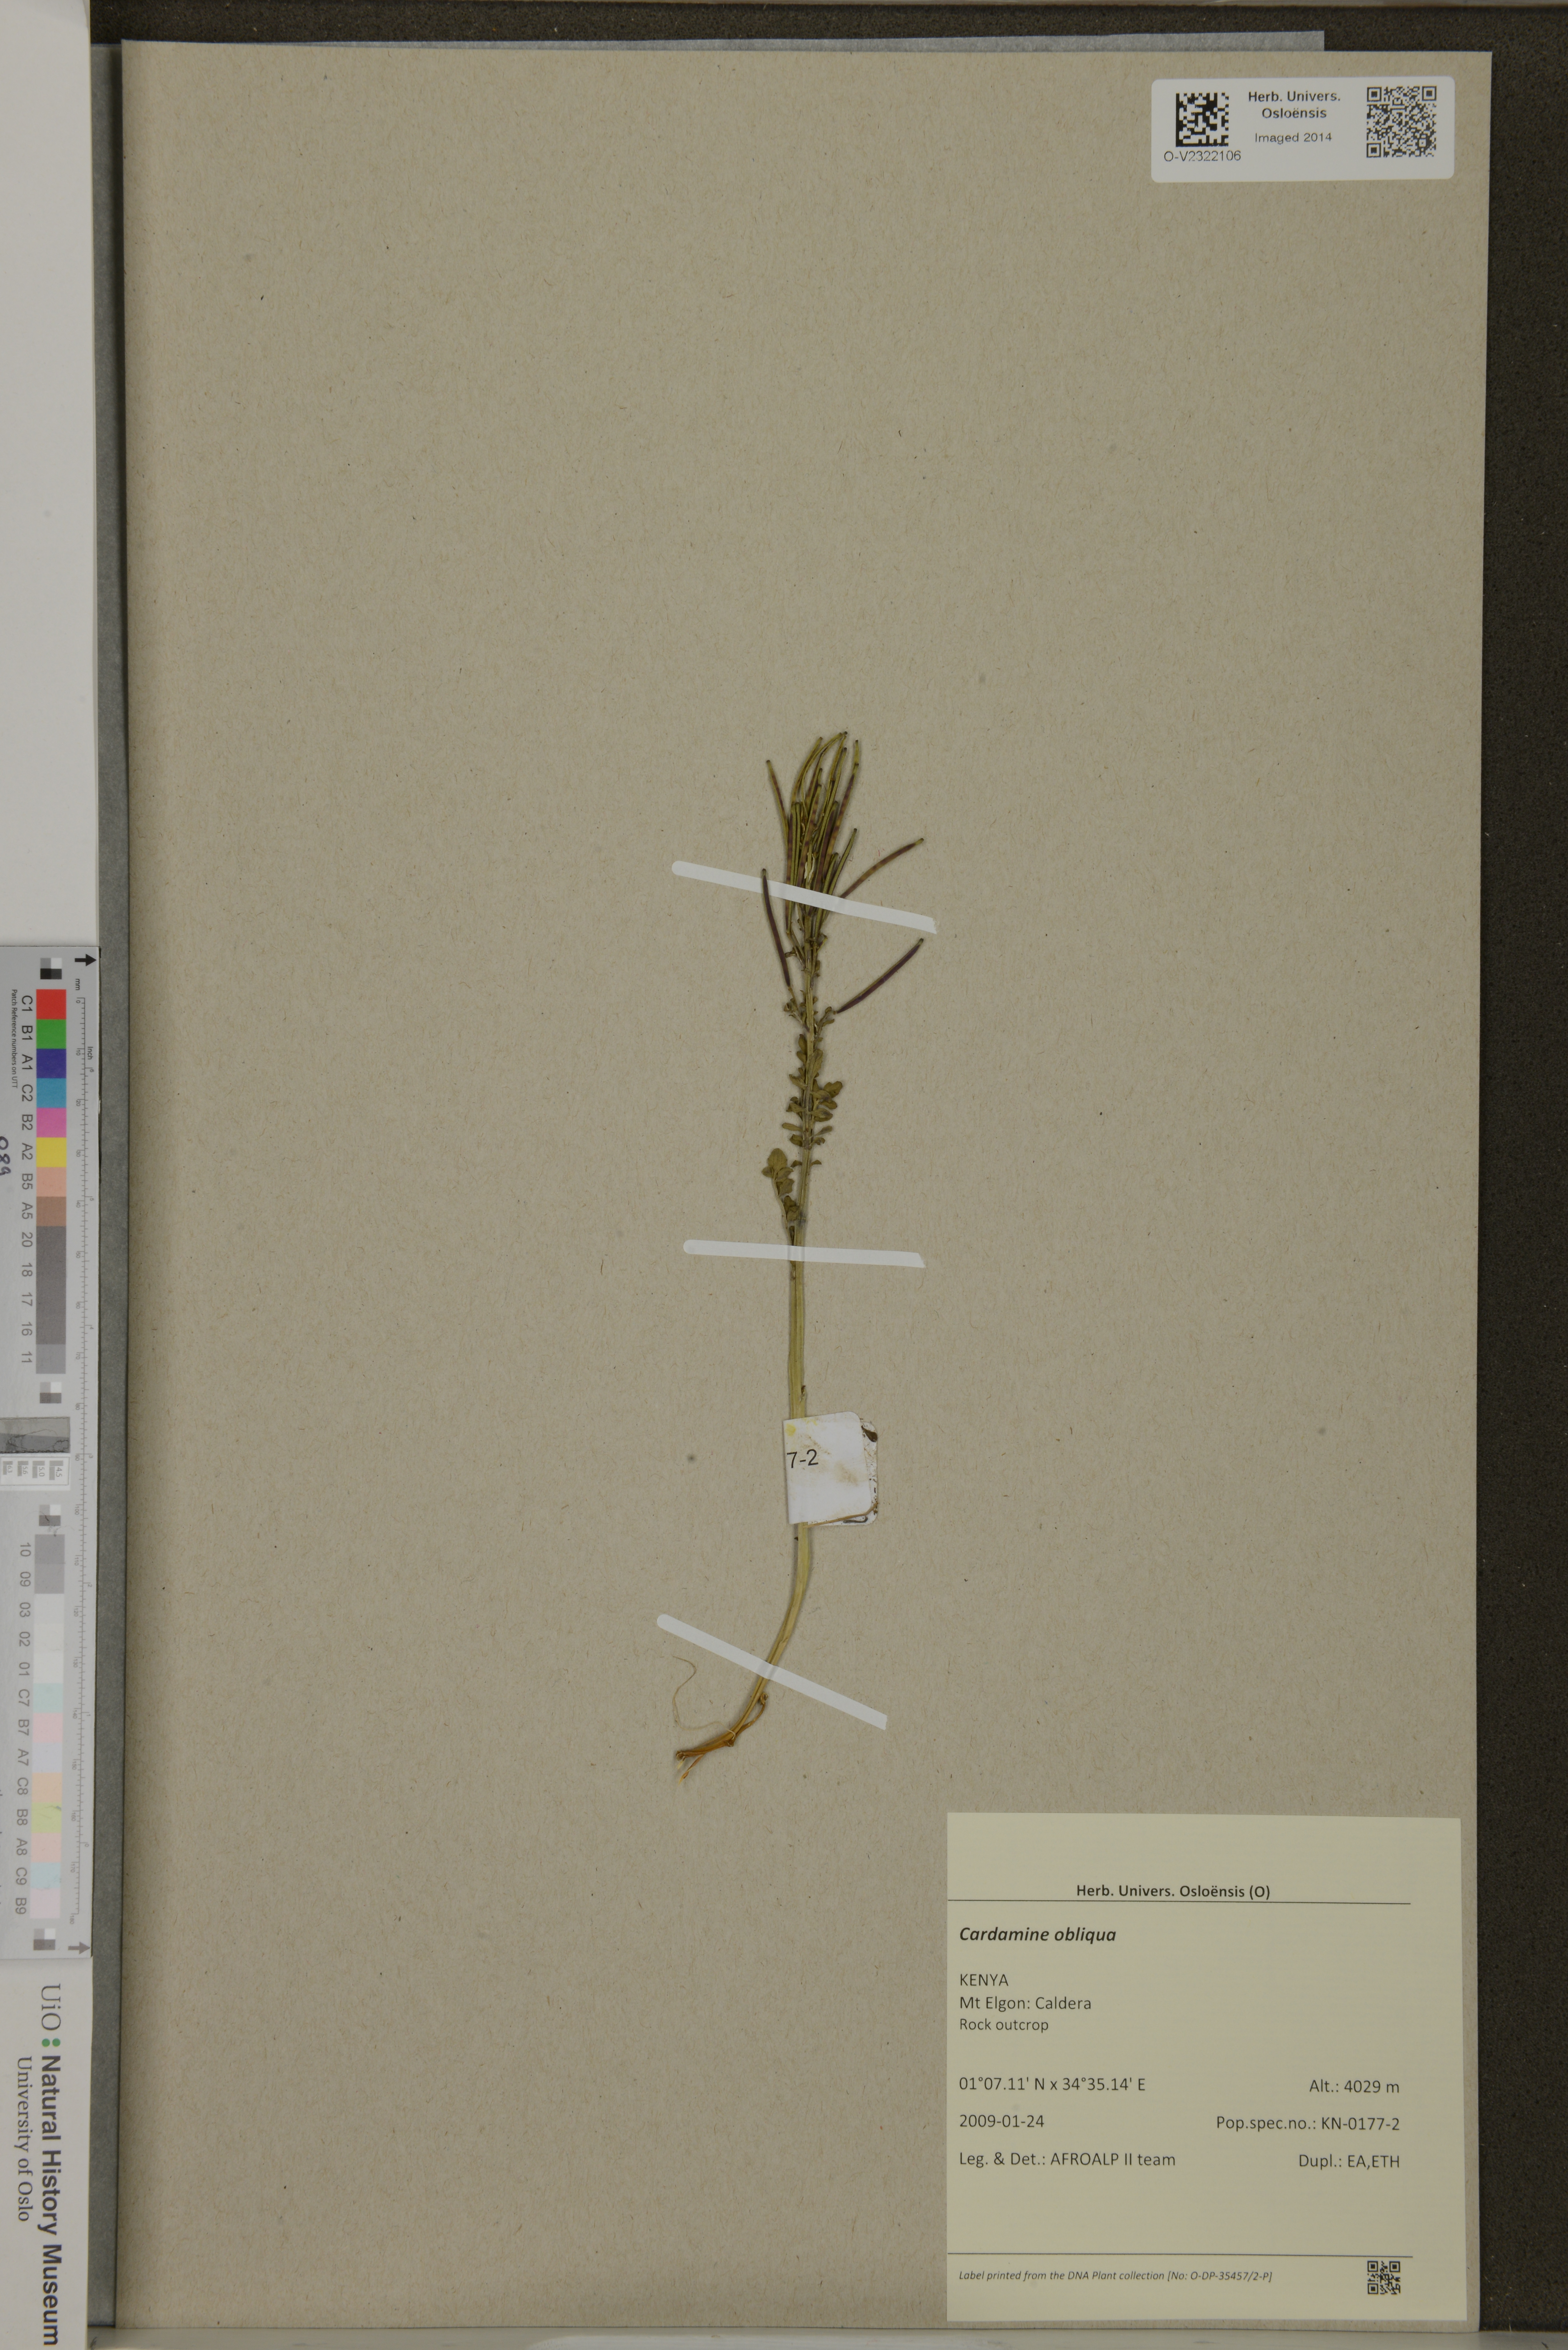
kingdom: Plantae
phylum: Tracheophyta
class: Magnoliopsida
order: Brassicales
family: Brassicaceae
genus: Cardamine
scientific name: Cardamine obliqua
